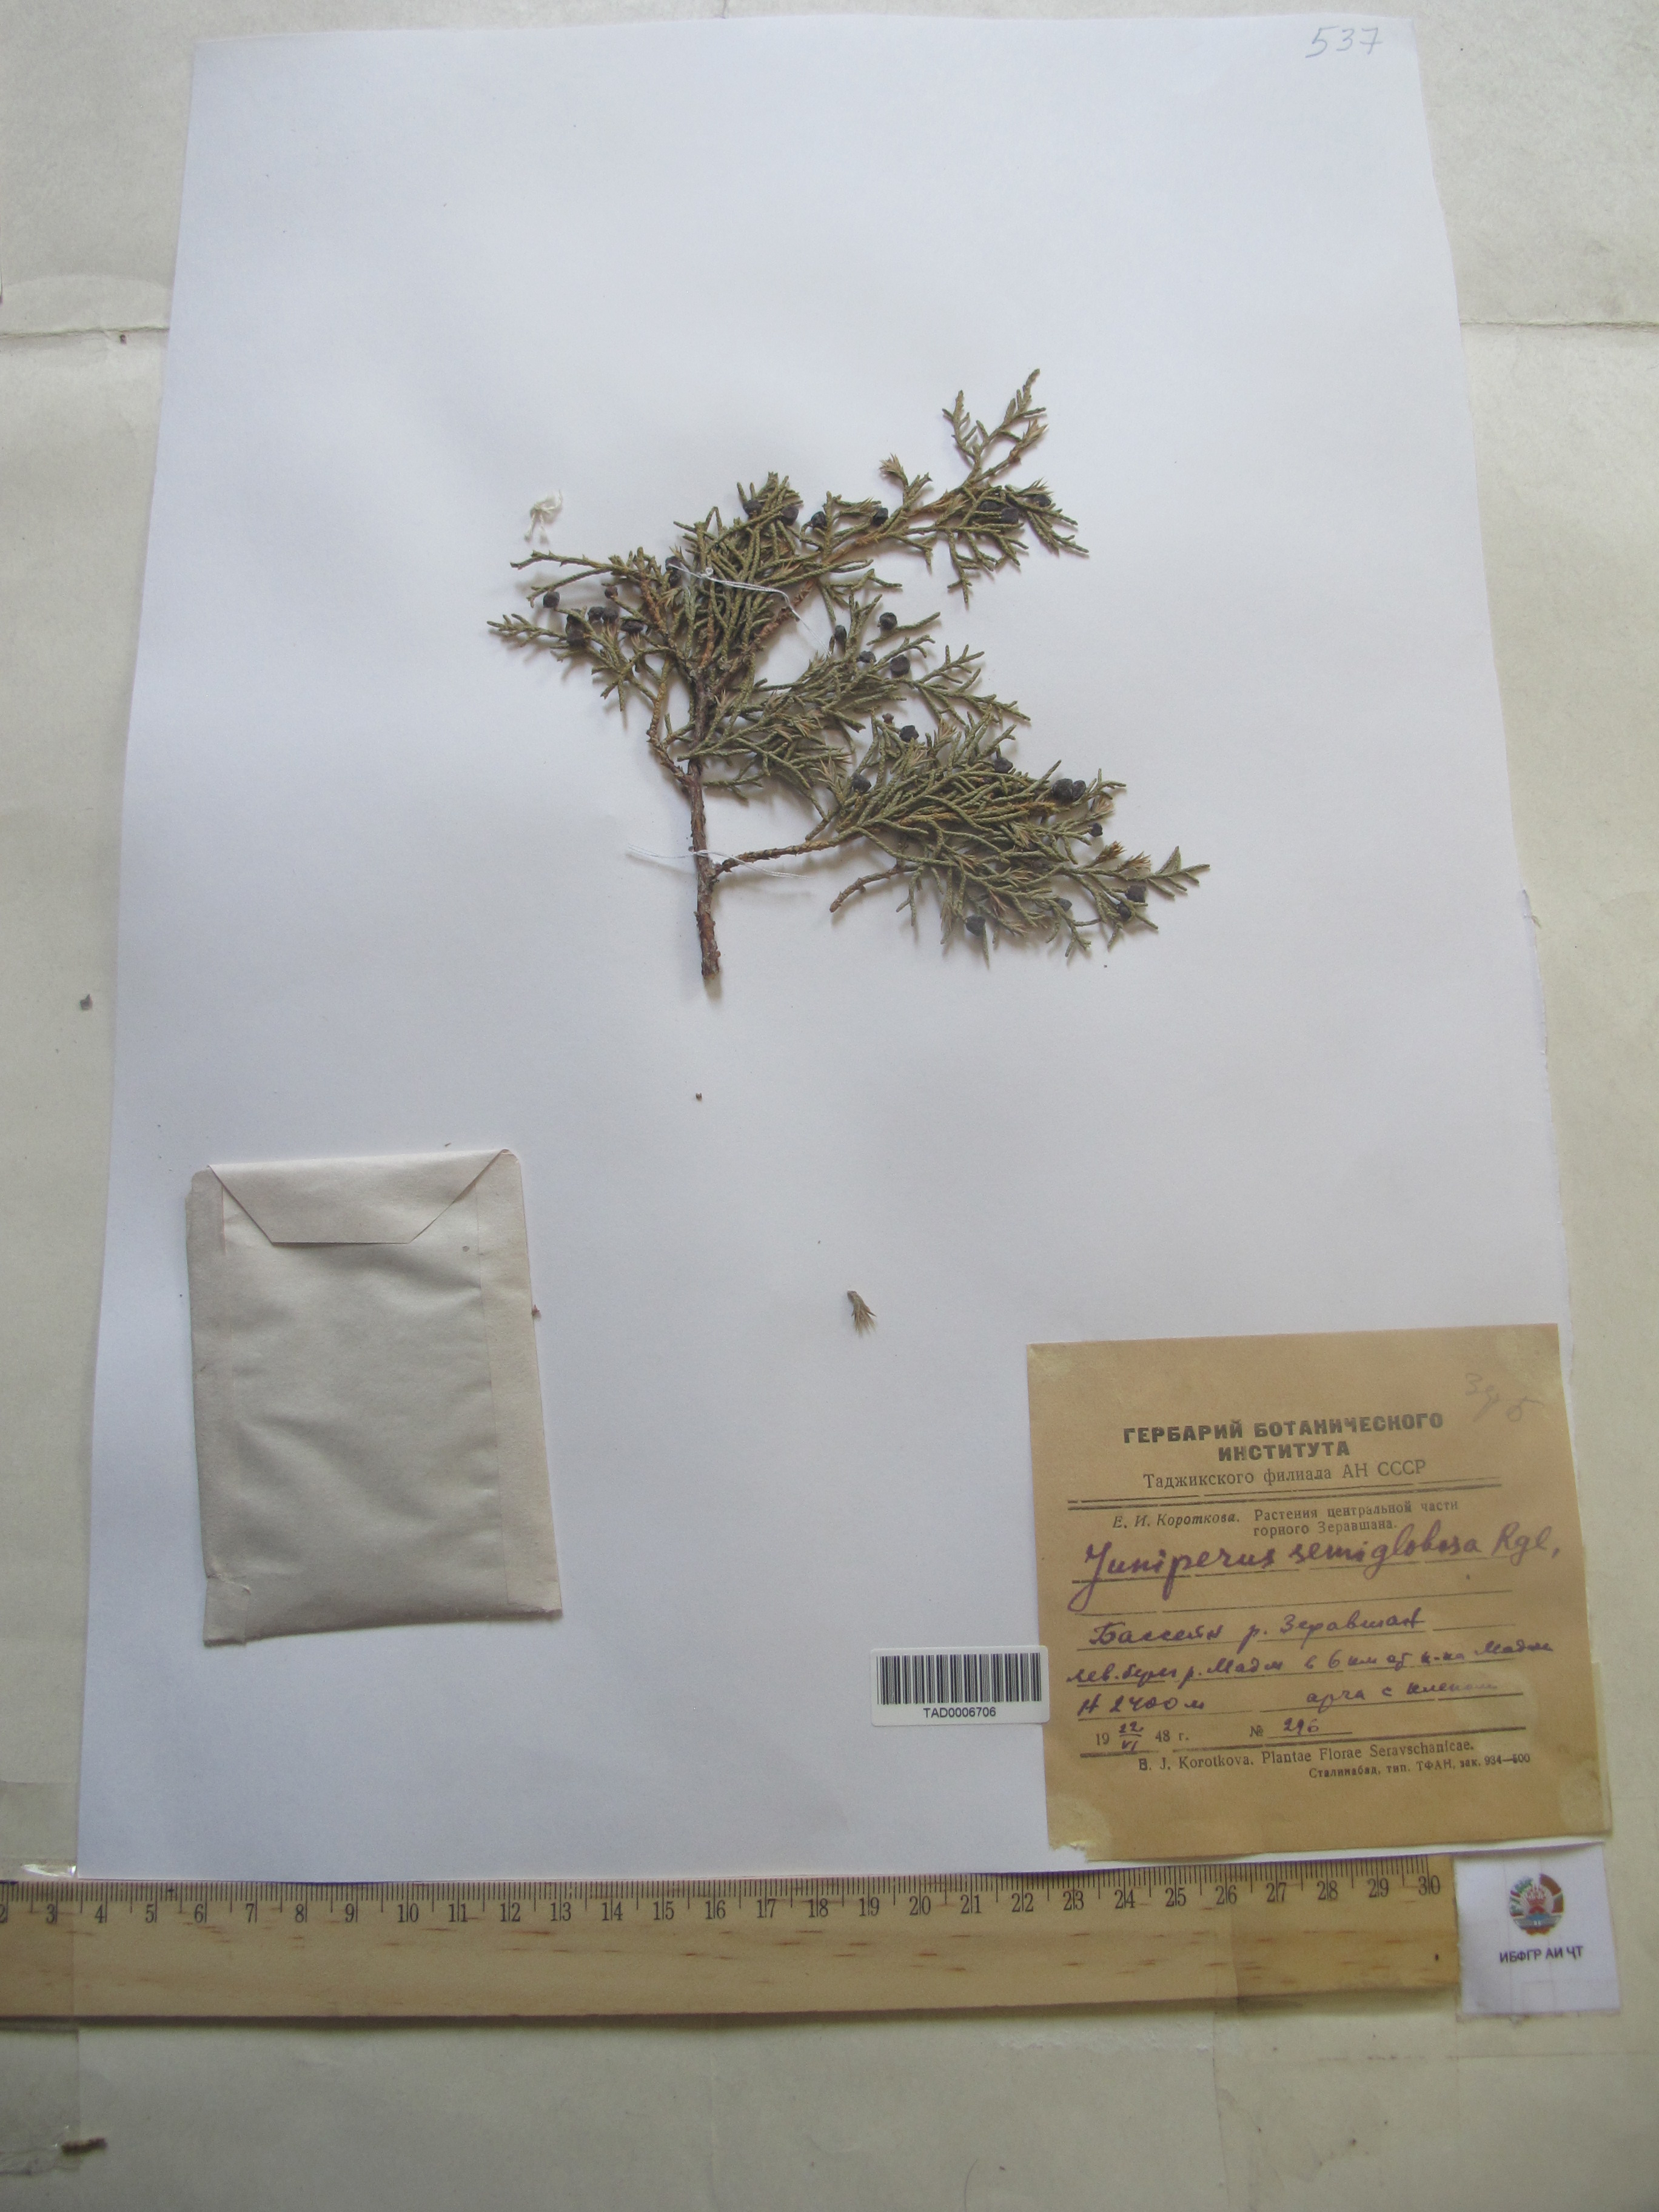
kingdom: Plantae
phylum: Tracheophyta
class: Pinopsida
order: Pinales
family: Cupressaceae
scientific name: Cupressaceae
